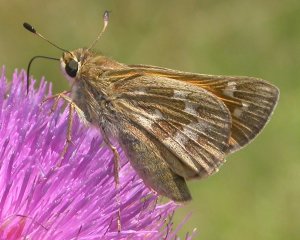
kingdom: Animalia
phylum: Arthropoda
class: Insecta
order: Lepidoptera
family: Hesperiidae
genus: Atalopedes
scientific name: Atalopedes campestris
